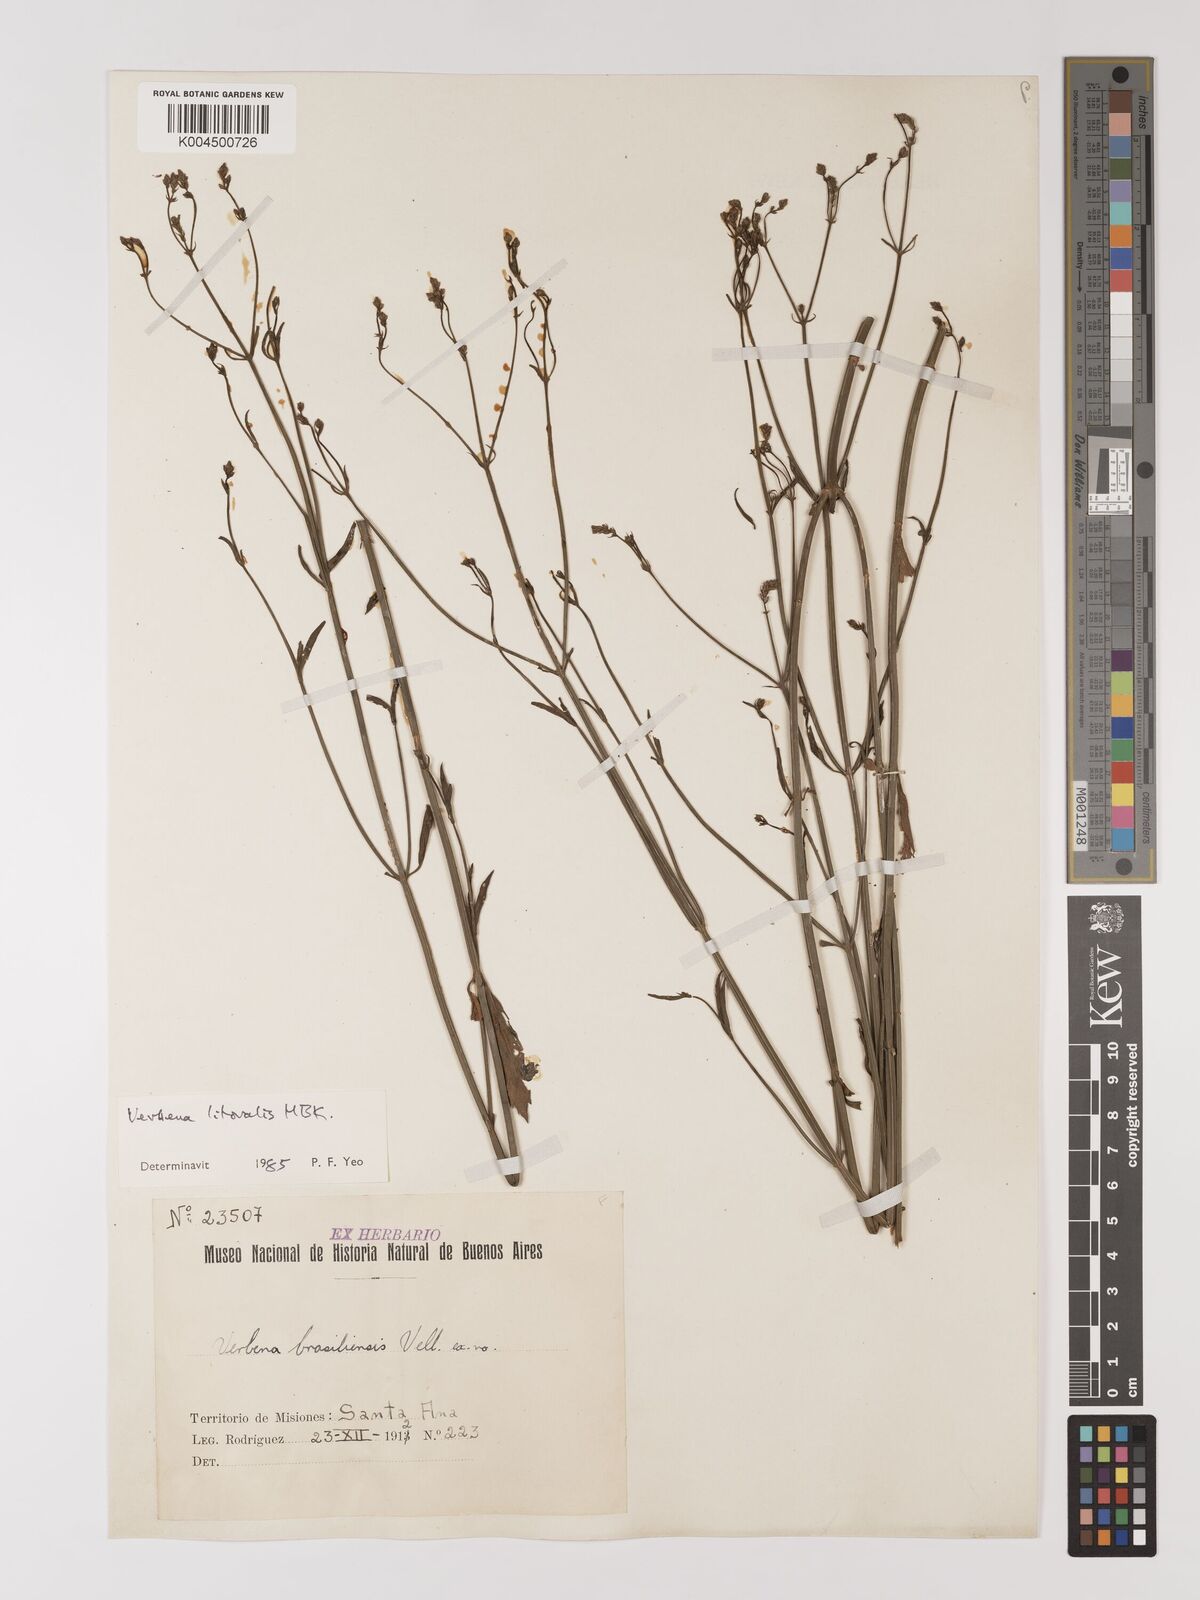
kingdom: Plantae
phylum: Tracheophyta
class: Magnoliopsida
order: Lamiales
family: Verbenaceae
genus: Verbena
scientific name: Verbena litoralis
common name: Seashore vervain
